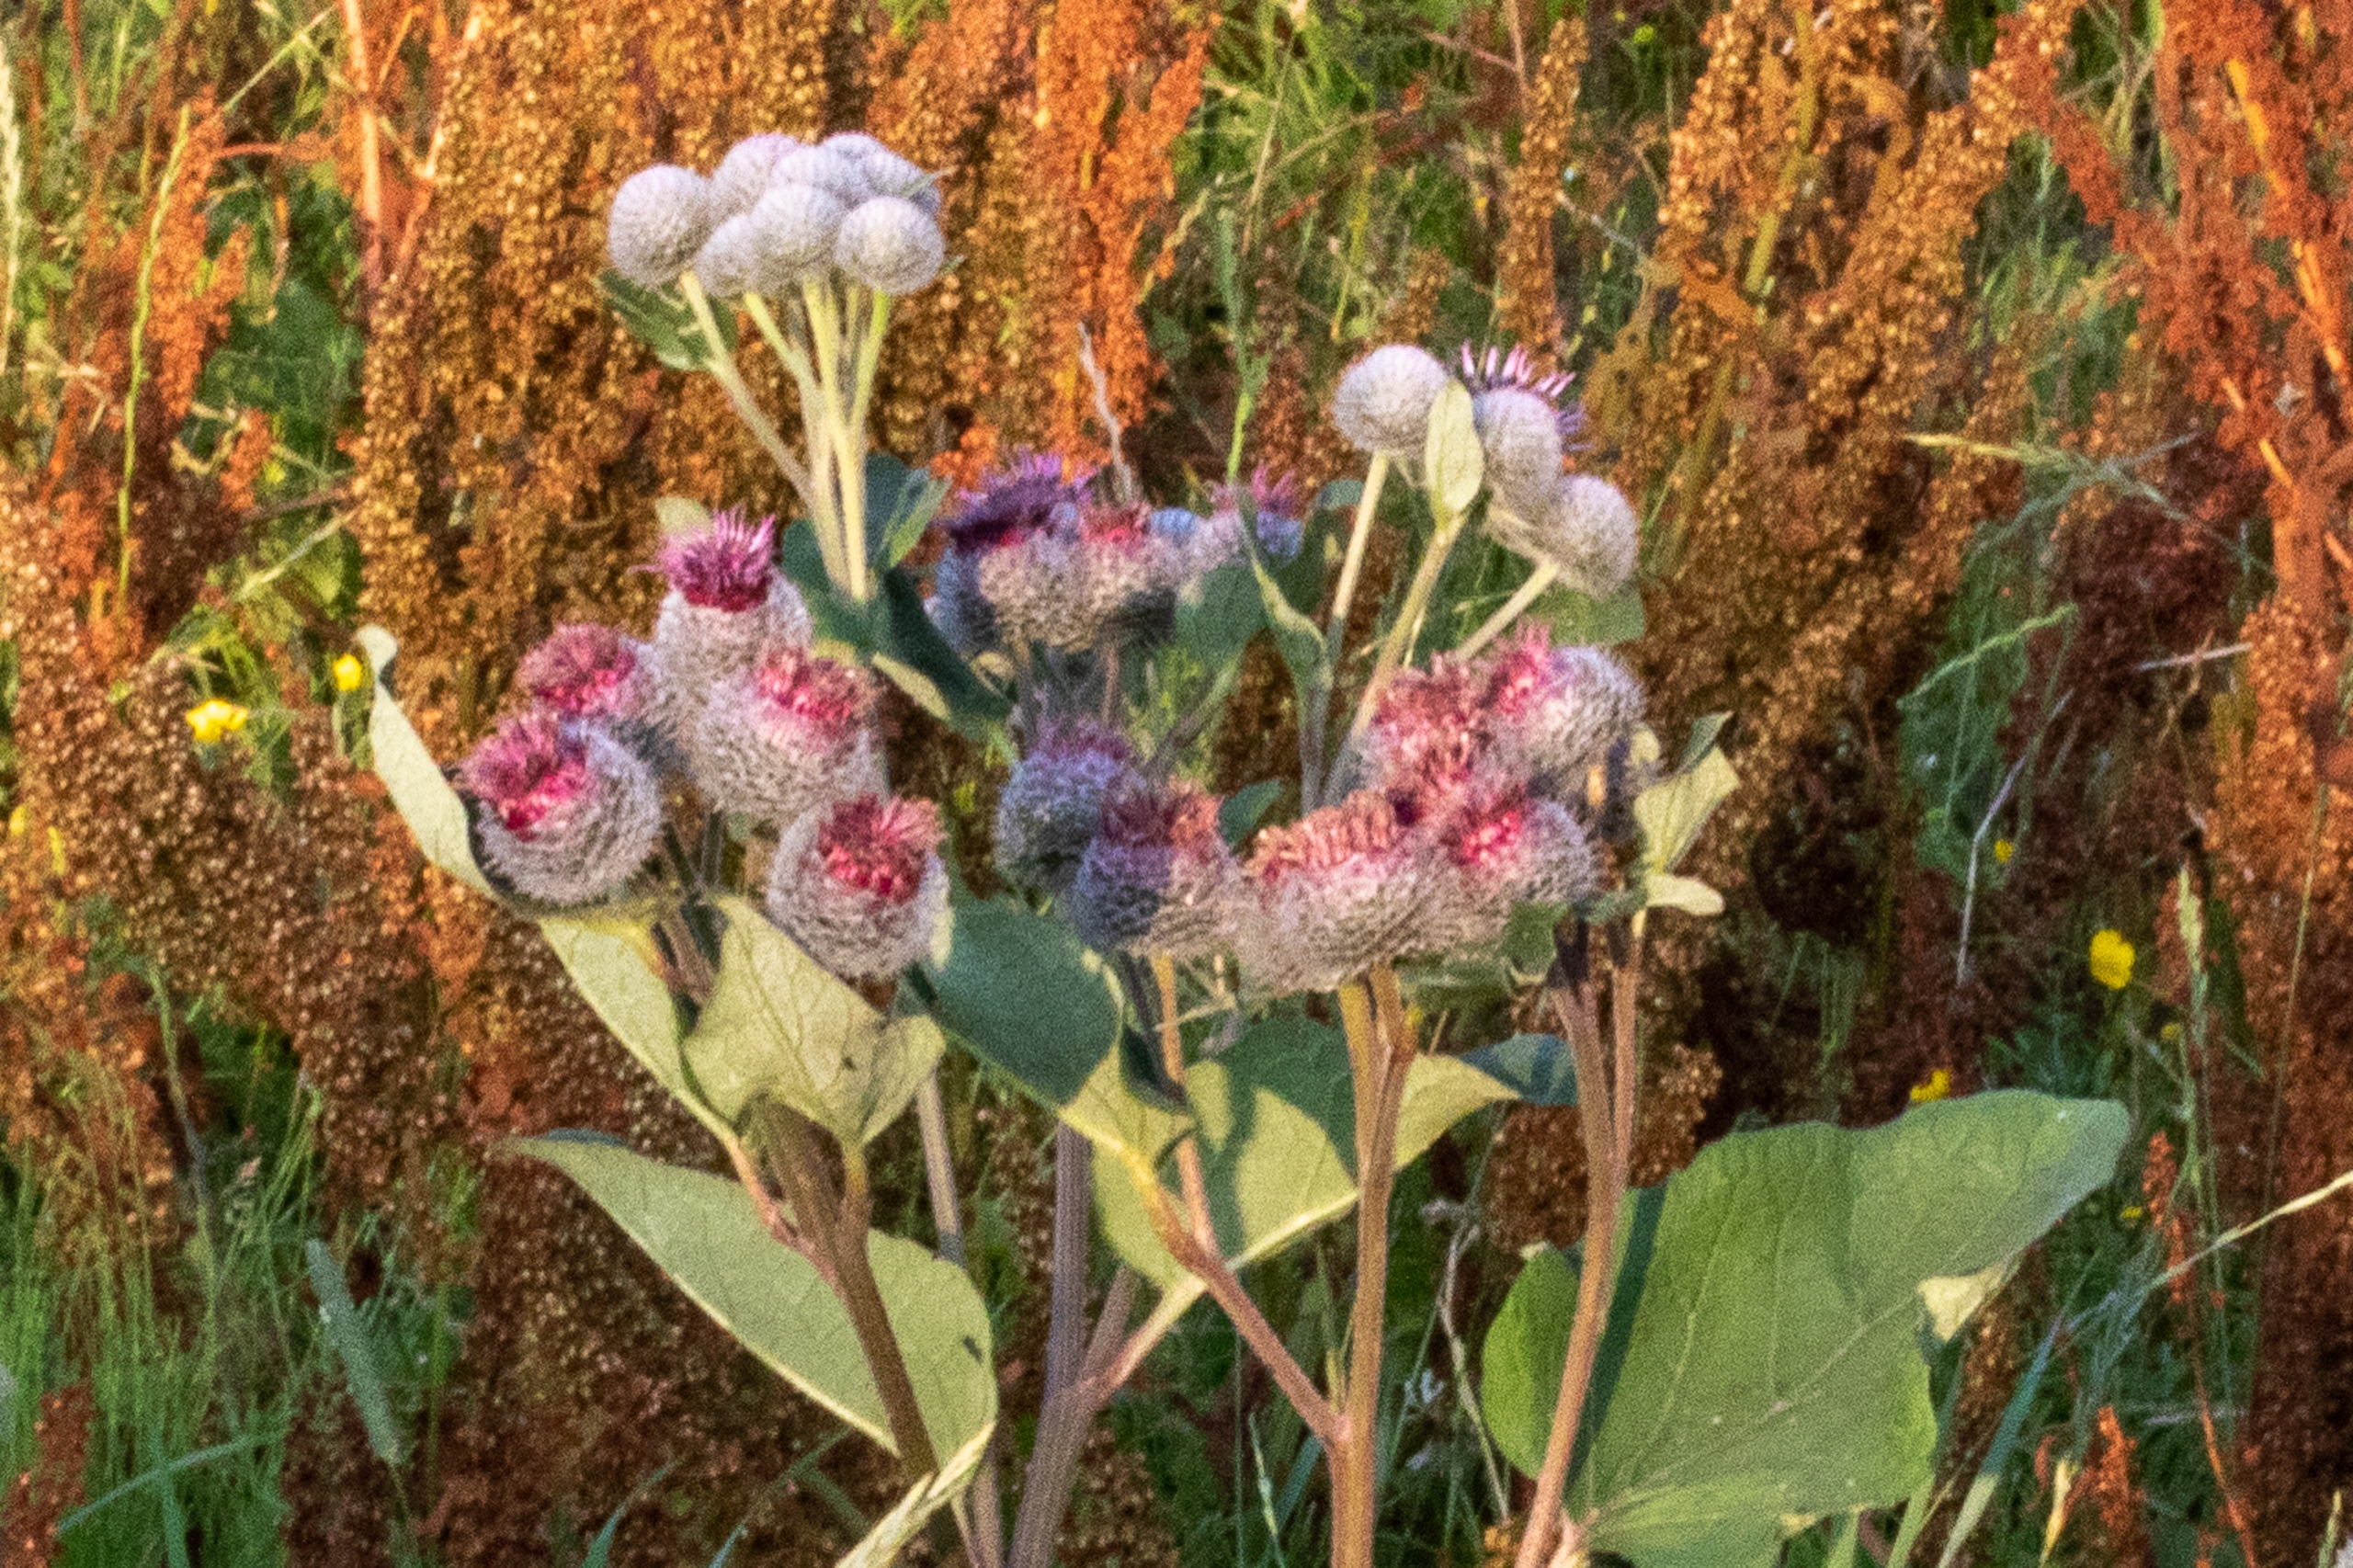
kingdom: Plantae
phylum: Tracheophyta
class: Magnoliopsida
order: Asterales
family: Asteraceae
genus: Arctium
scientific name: Arctium tomentosum
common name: Filtet burre
